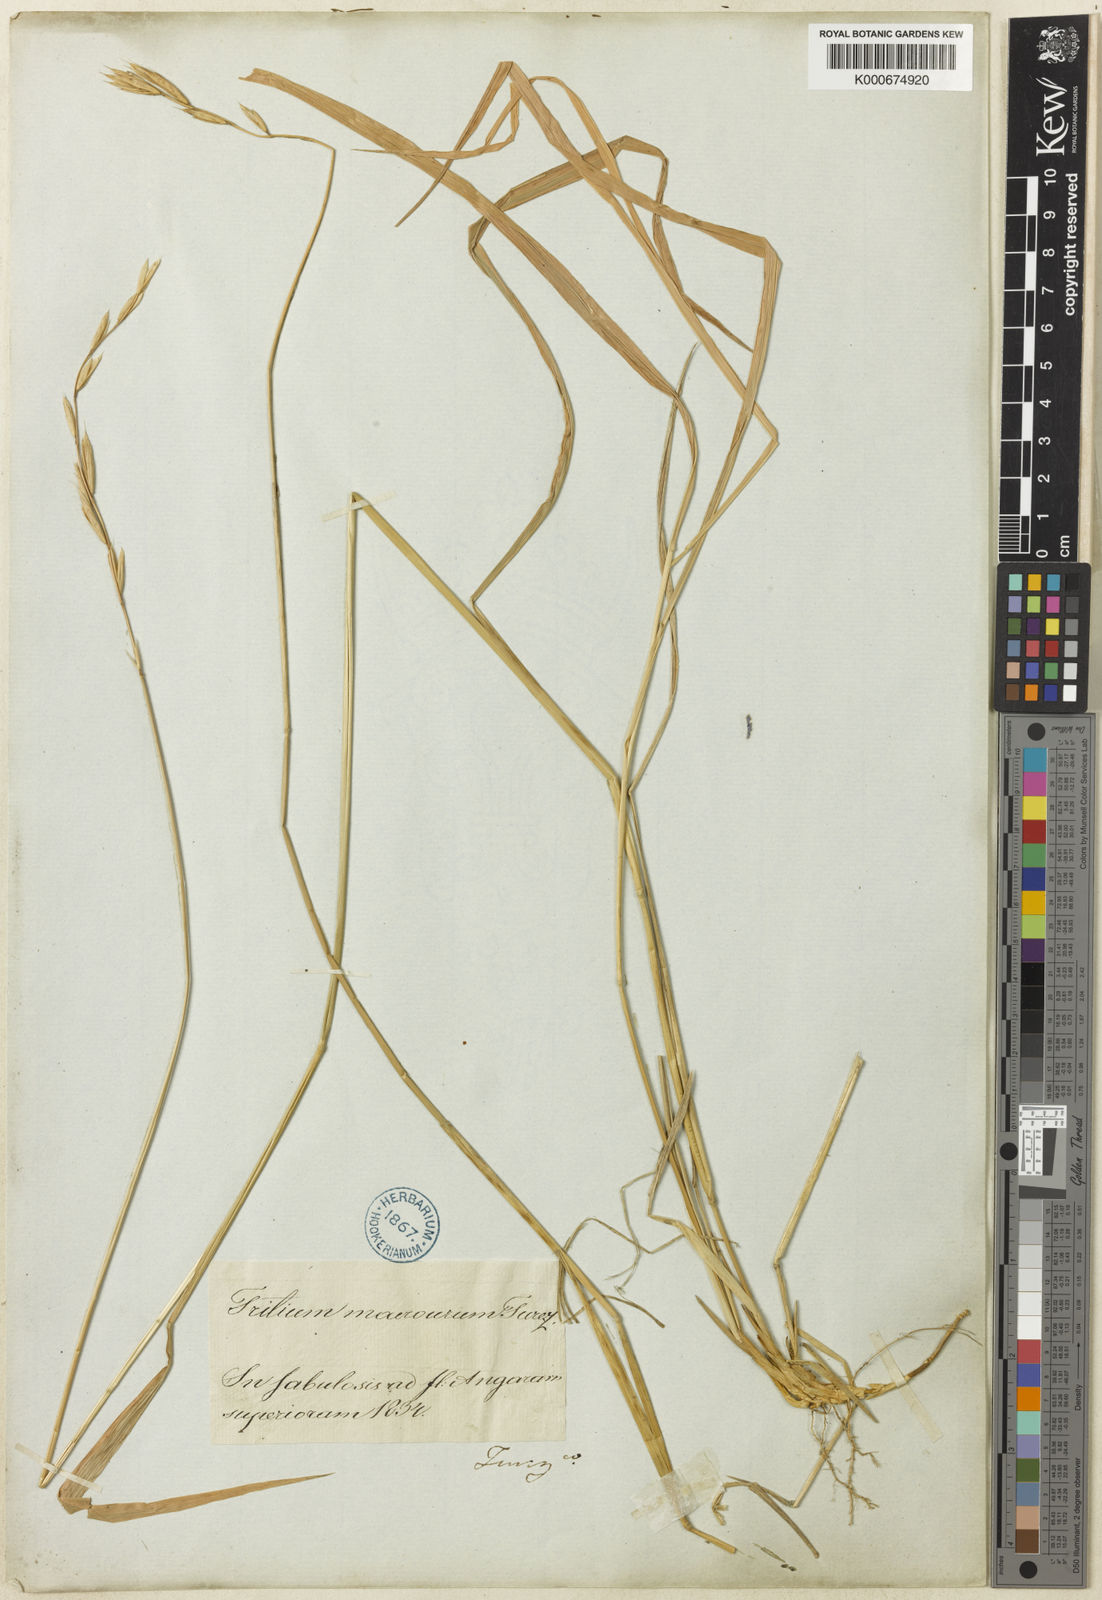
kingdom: Plantae
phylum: Tracheophyta
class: Liliopsida
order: Poales
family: Poaceae
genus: Elymus
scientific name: Elymus macrourus
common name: Northern wheatgrass
